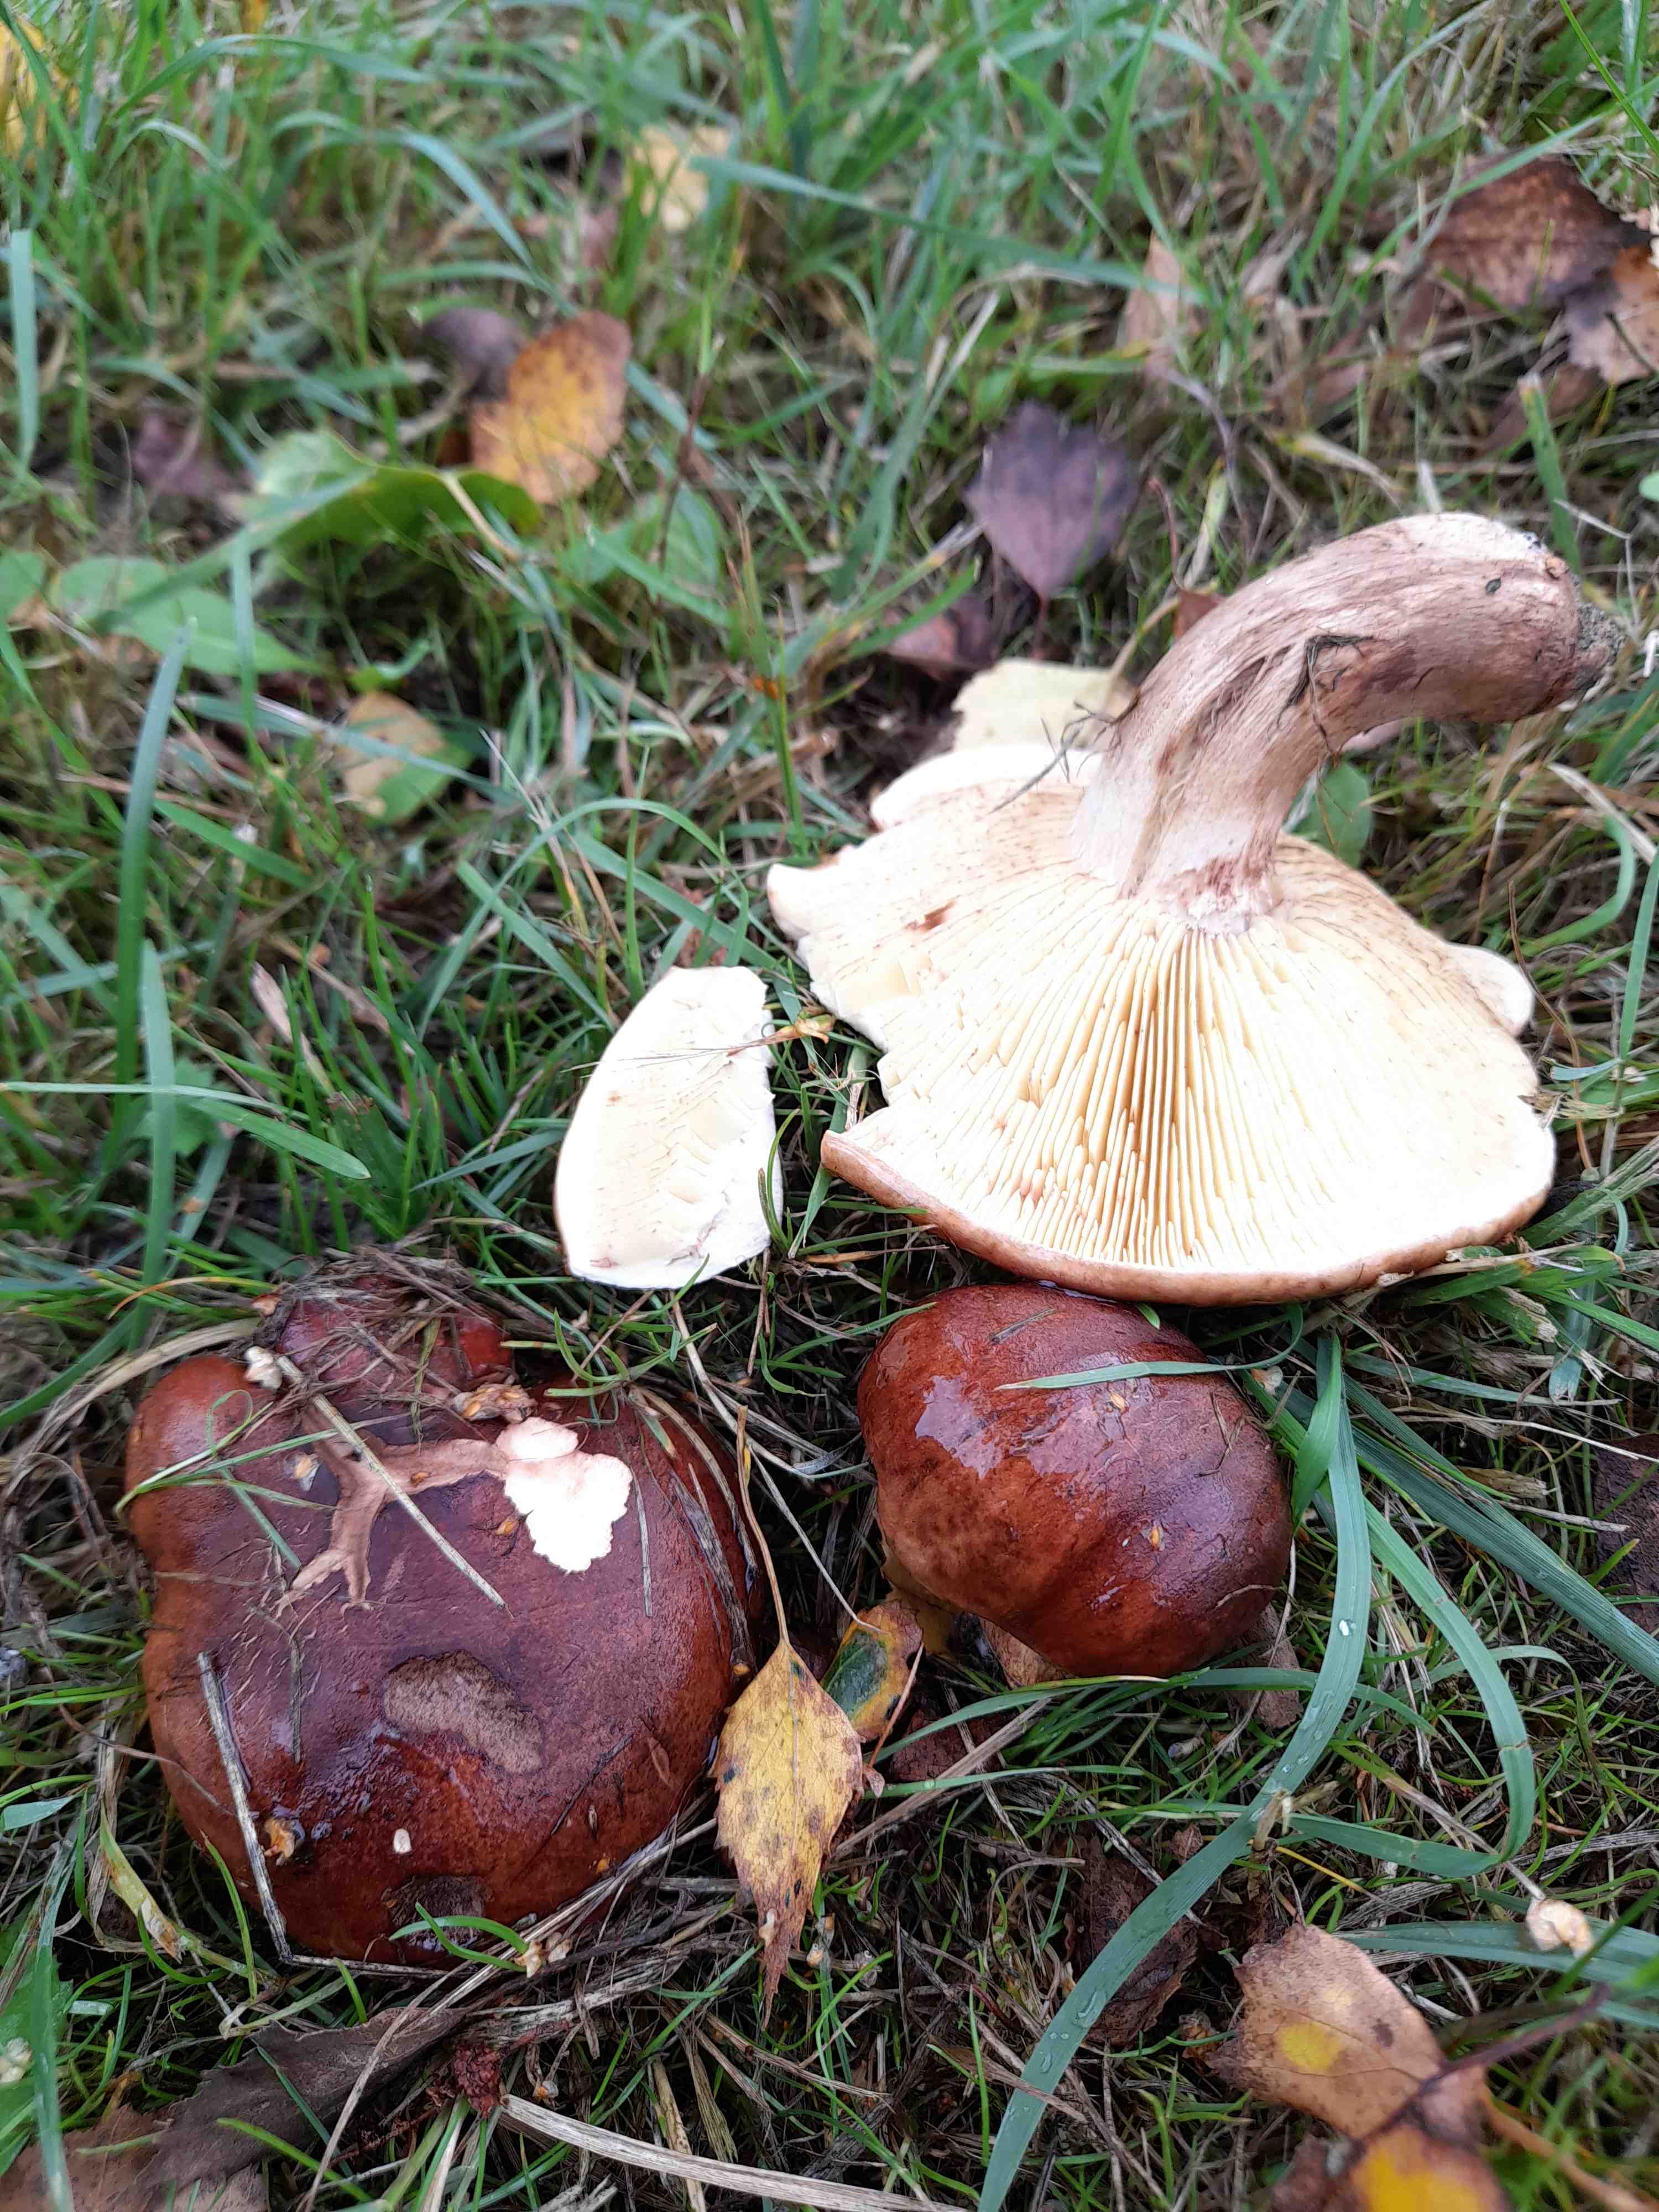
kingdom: Fungi
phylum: Basidiomycota
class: Agaricomycetes
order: Agaricales
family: Tricholomataceae
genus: Tricholoma
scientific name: Tricholoma fulvum
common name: birke-ridderhat
